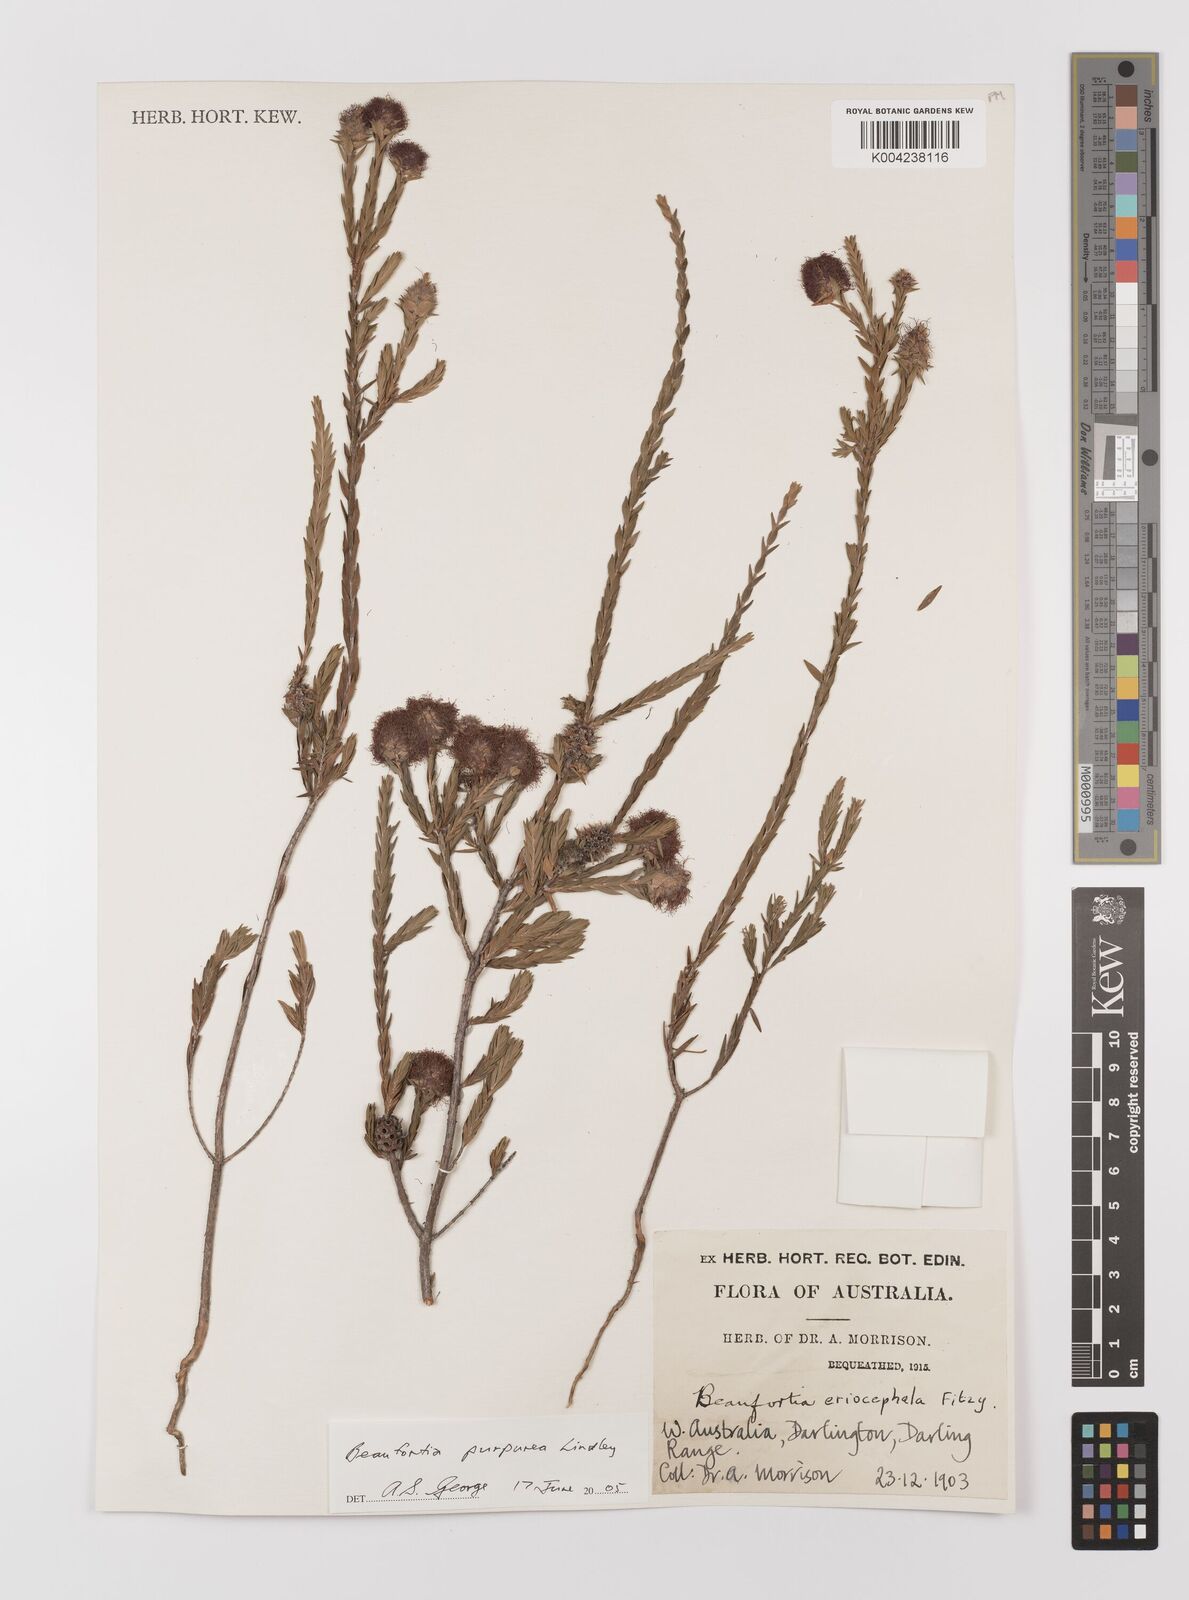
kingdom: Plantae
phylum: Tracheophyta
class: Magnoliopsida
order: Myrtales
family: Myrtaceae
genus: Melaleuca
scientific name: Melaleuca purpurea
